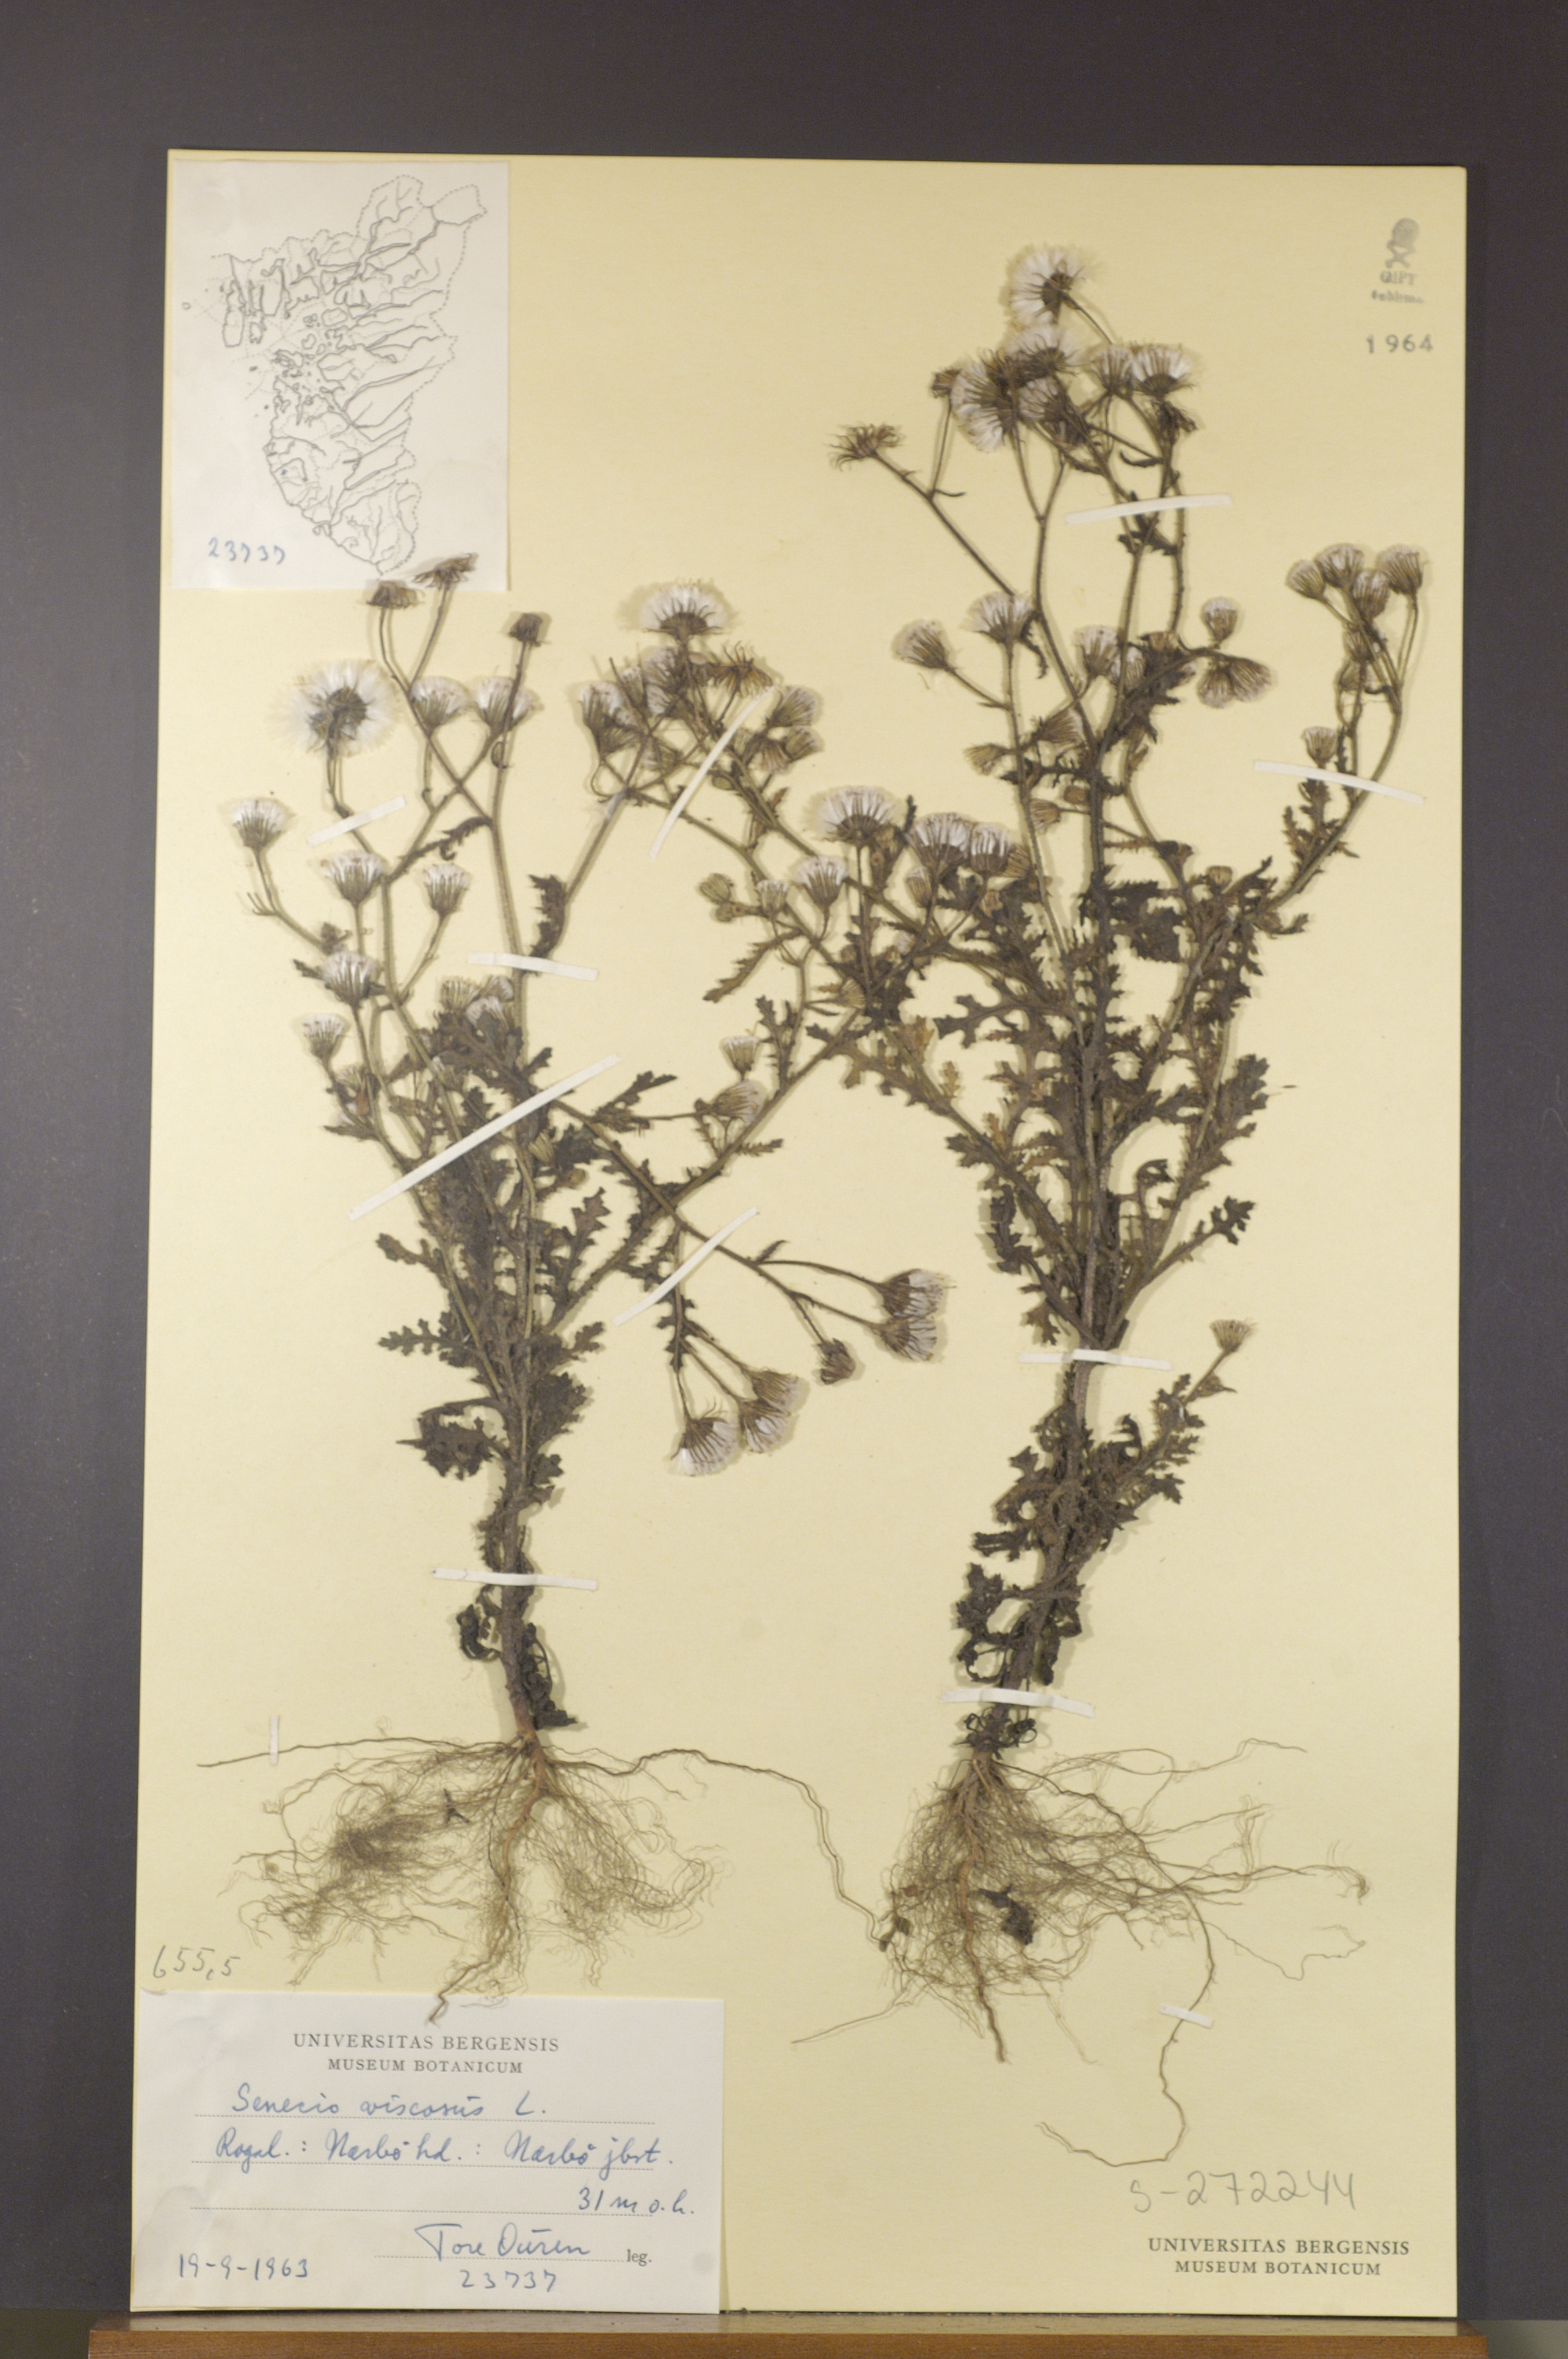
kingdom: Plantae
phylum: Tracheophyta
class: Magnoliopsida
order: Asterales
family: Asteraceae
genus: Senecio
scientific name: Senecio viscosus
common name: Sticky groundsel
